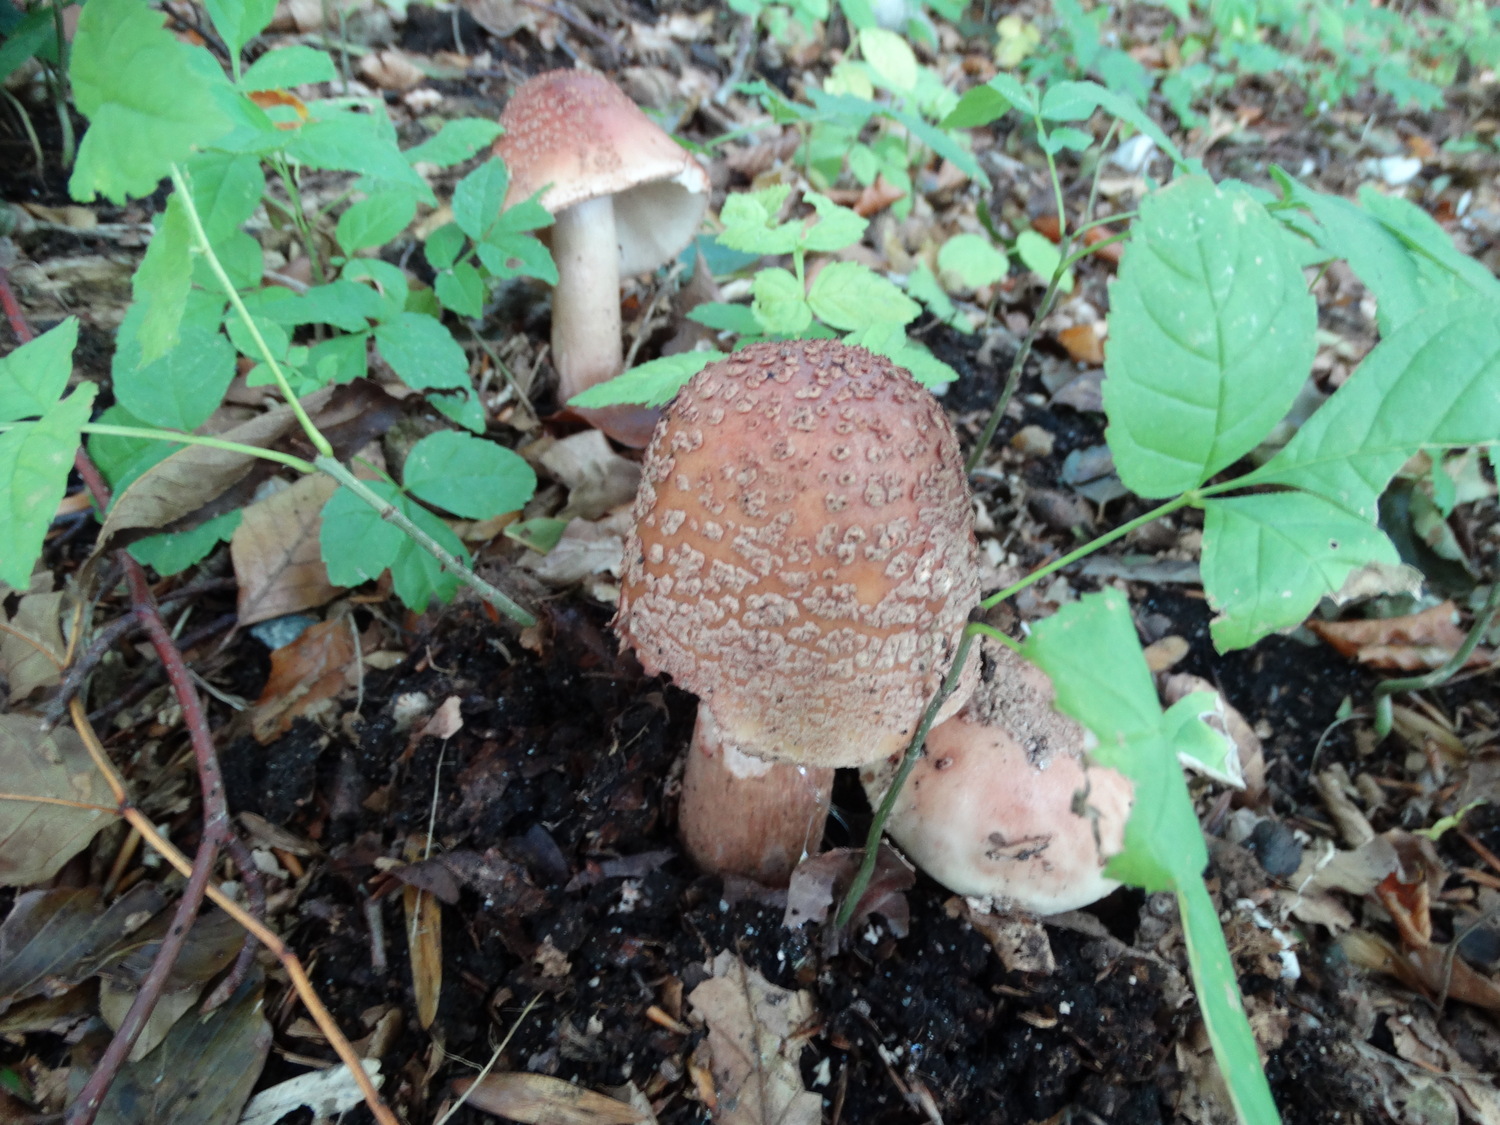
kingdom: Fungi
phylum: Basidiomycota
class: Agaricomycetes
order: Agaricales
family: Amanitaceae
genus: Amanita
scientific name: Amanita rubescens
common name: rødmende fluesvamp
